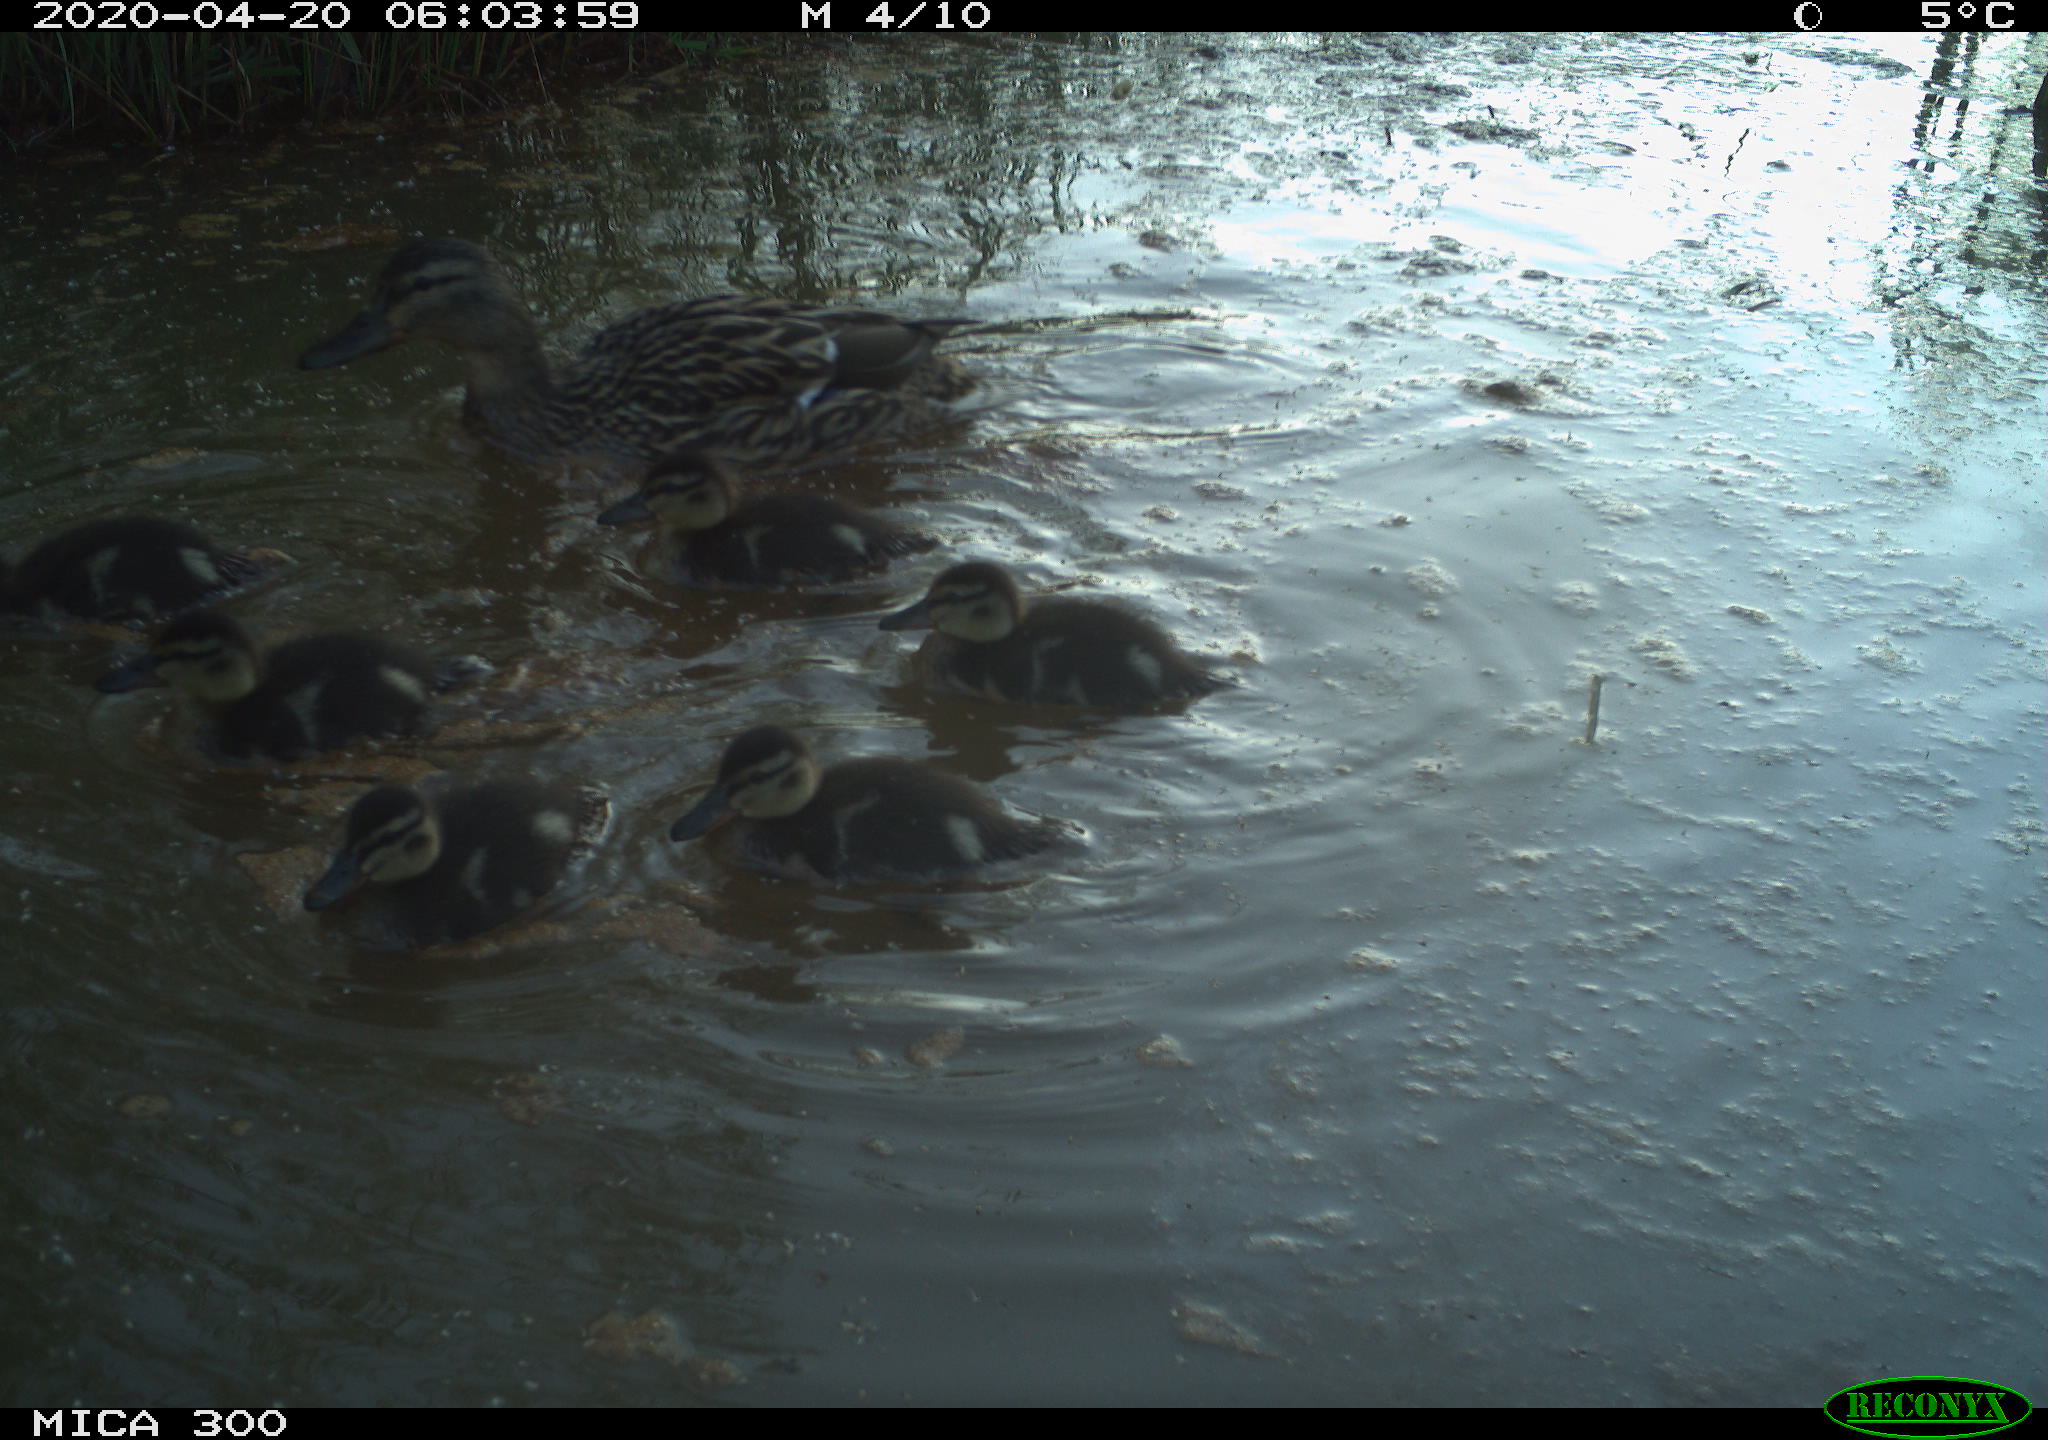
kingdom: Animalia
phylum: Chordata
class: Aves
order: Anseriformes
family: Anatidae
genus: Anas
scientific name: Anas platyrhynchos
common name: Mallard
